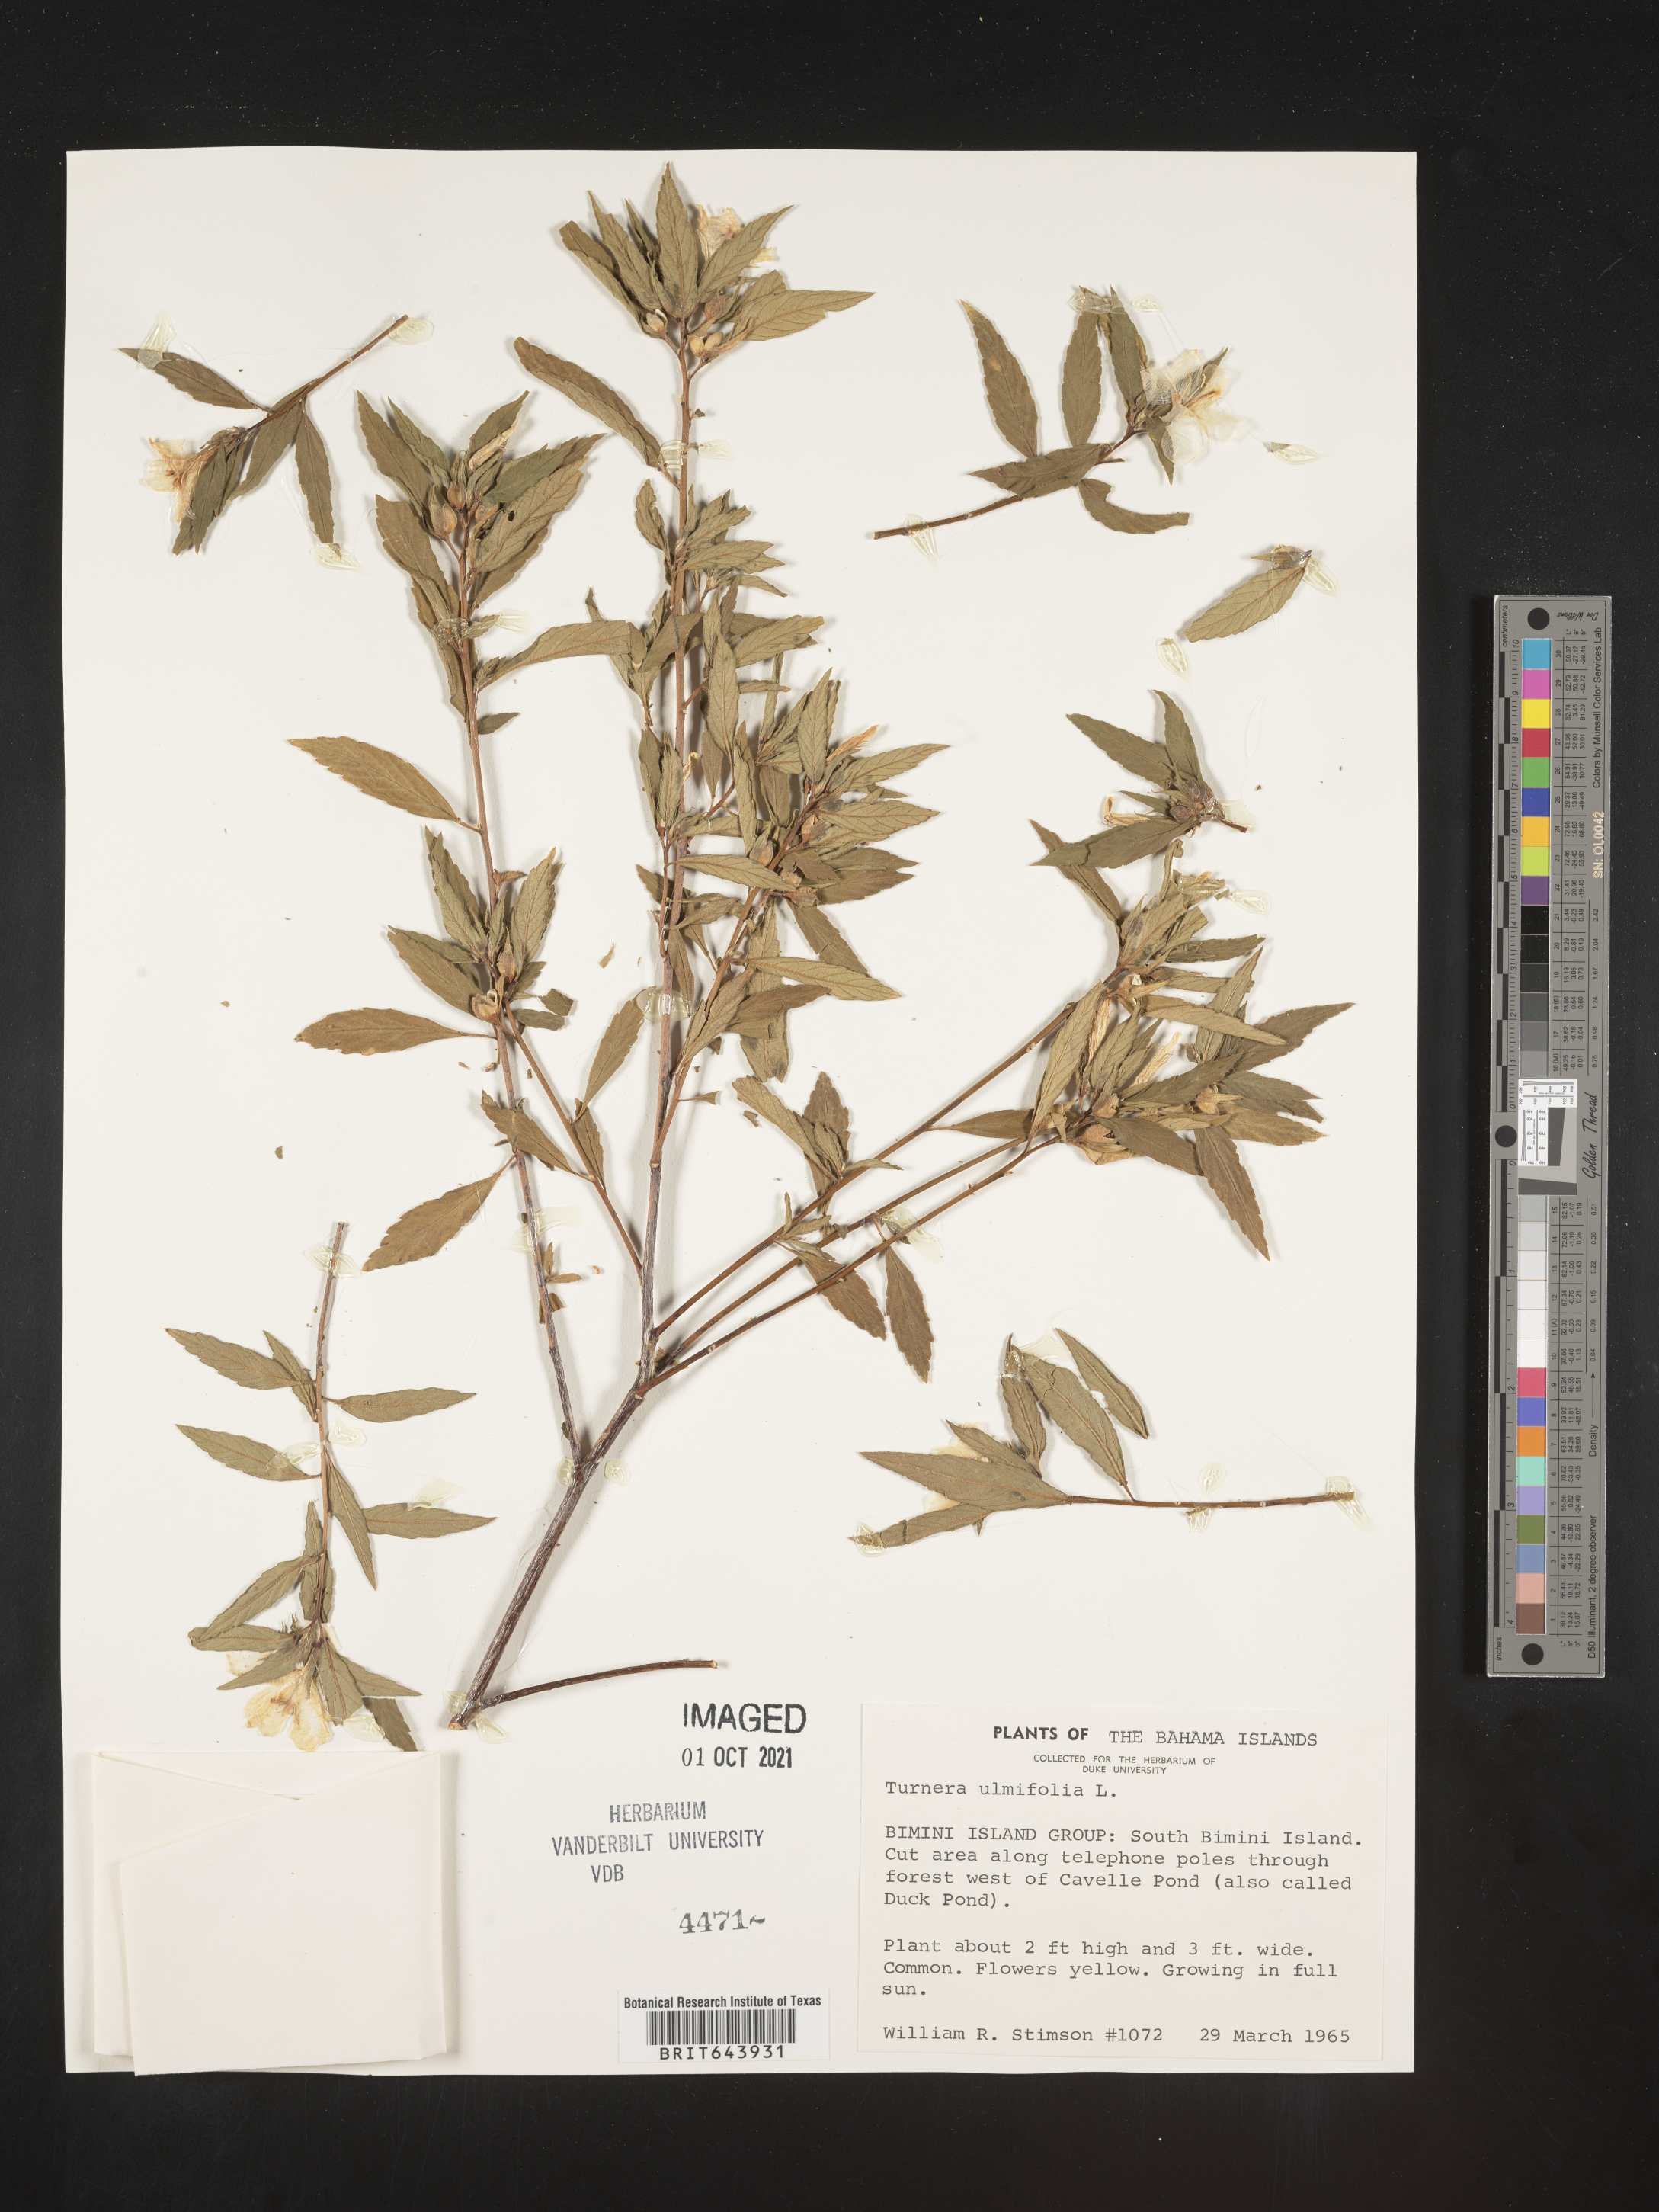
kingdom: Plantae
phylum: Tracheophyta
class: Magnoliopsida
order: Malpighiales
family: Turneraceae
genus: Turnera
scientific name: Turnera
